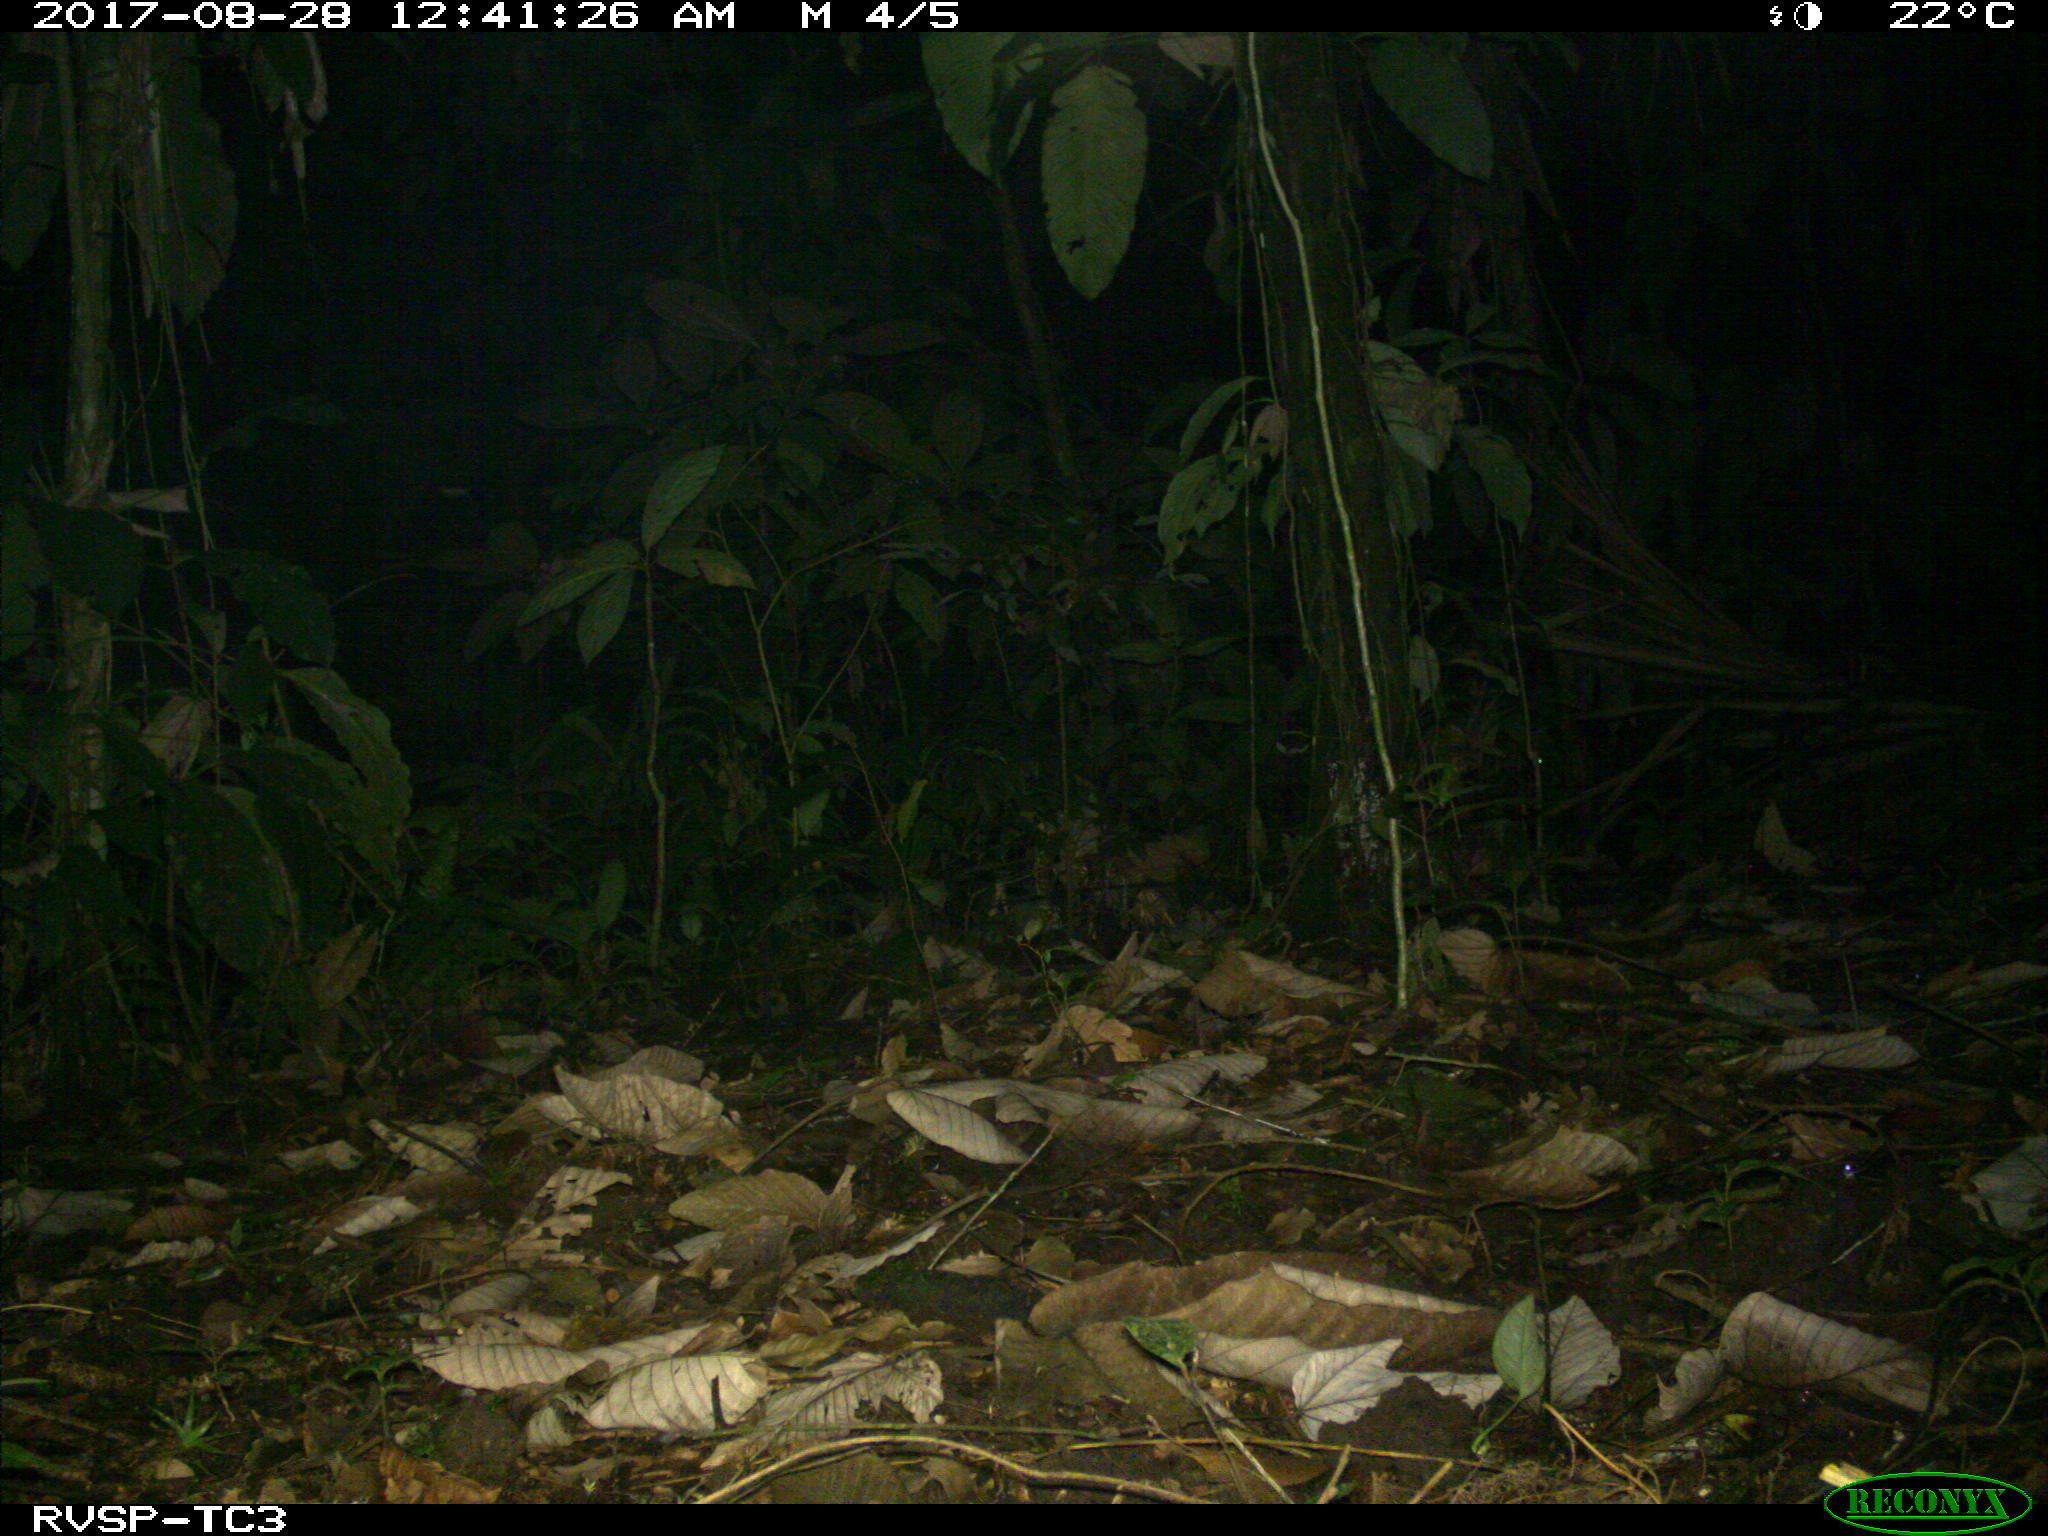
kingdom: Animalia
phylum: Chordata
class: Mammalia
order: Rodentia
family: Cuniculidae
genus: Cuniculus
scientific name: Cuniculus paca
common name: Lowland paca
